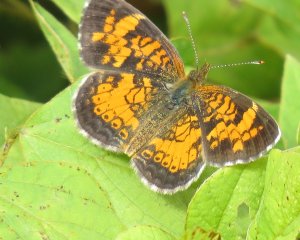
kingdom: Animalia
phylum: Arthropoda
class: Insecta
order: Lepidoptera
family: Nymphalidae
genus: Phyciodes
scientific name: Phyciodes tharos
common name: Pearl Crescent
